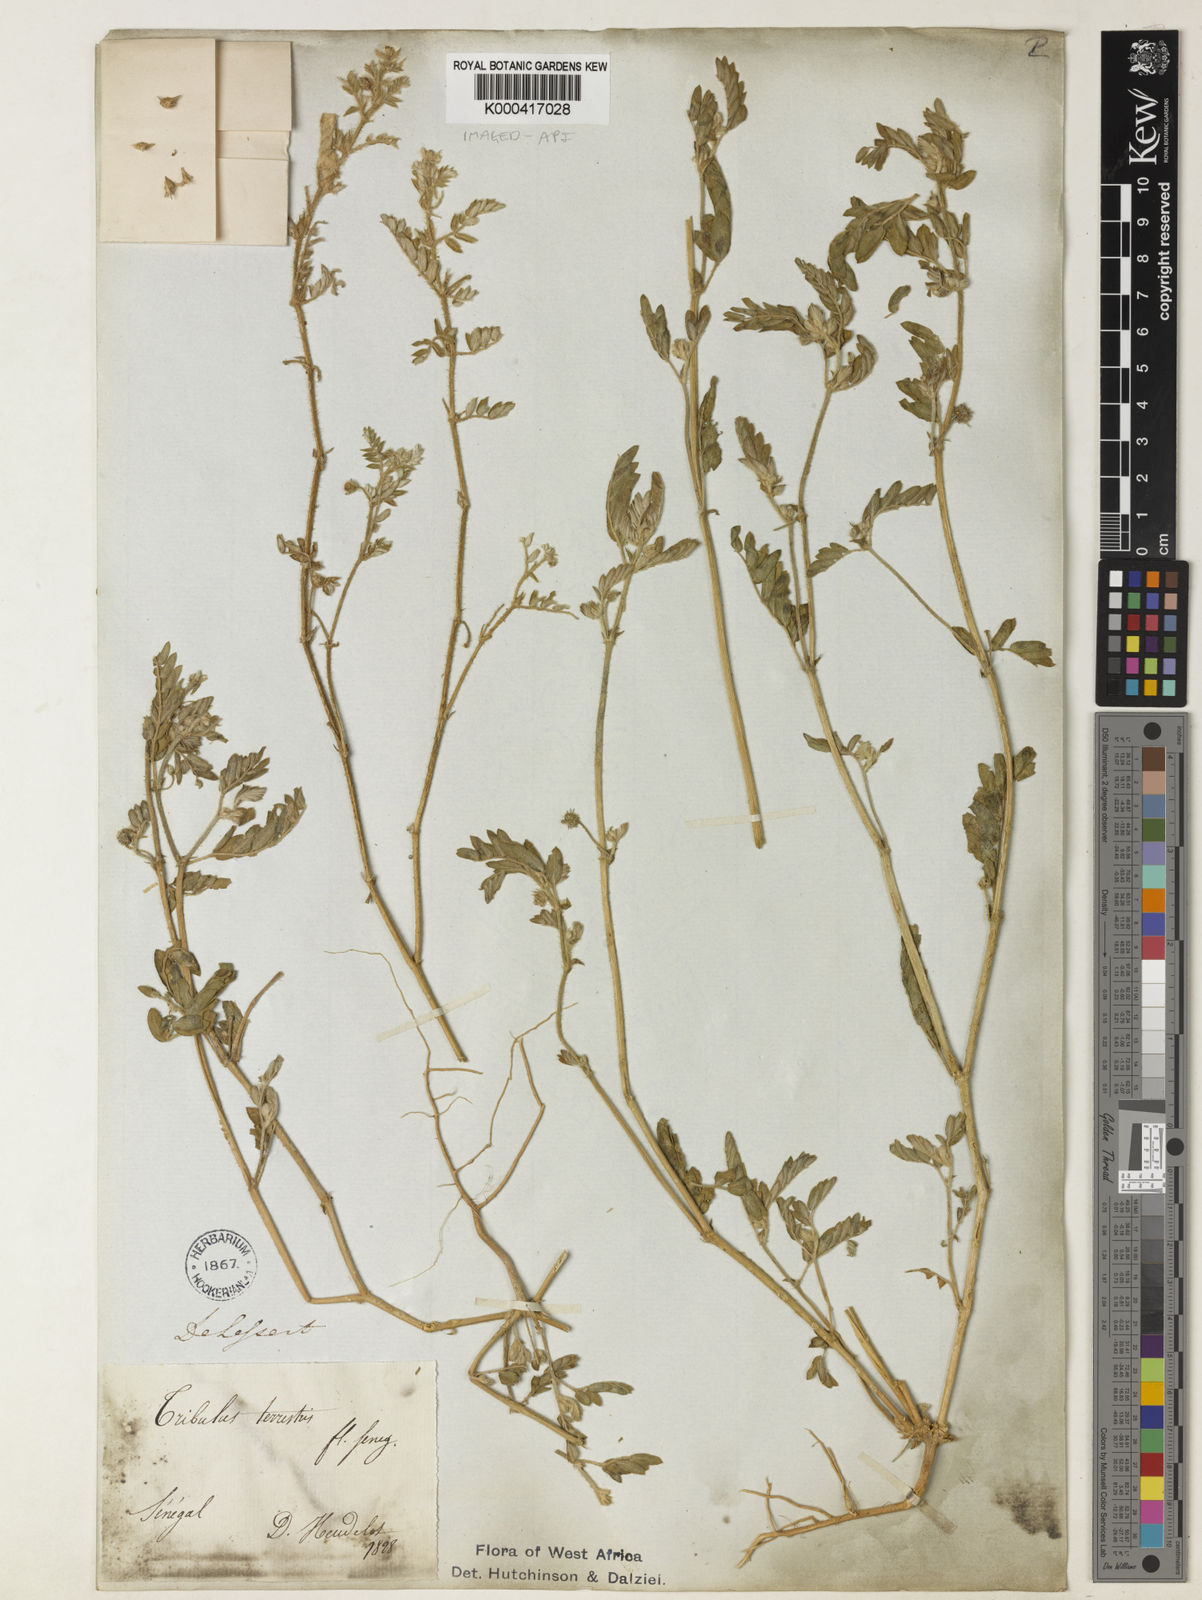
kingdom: Plantae
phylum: Tracheophyta
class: Magnoliopsida
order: Zygophyllales
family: Zygophyllaceae
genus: Tribulus
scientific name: Tribulus terrestris
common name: Puncturevine
